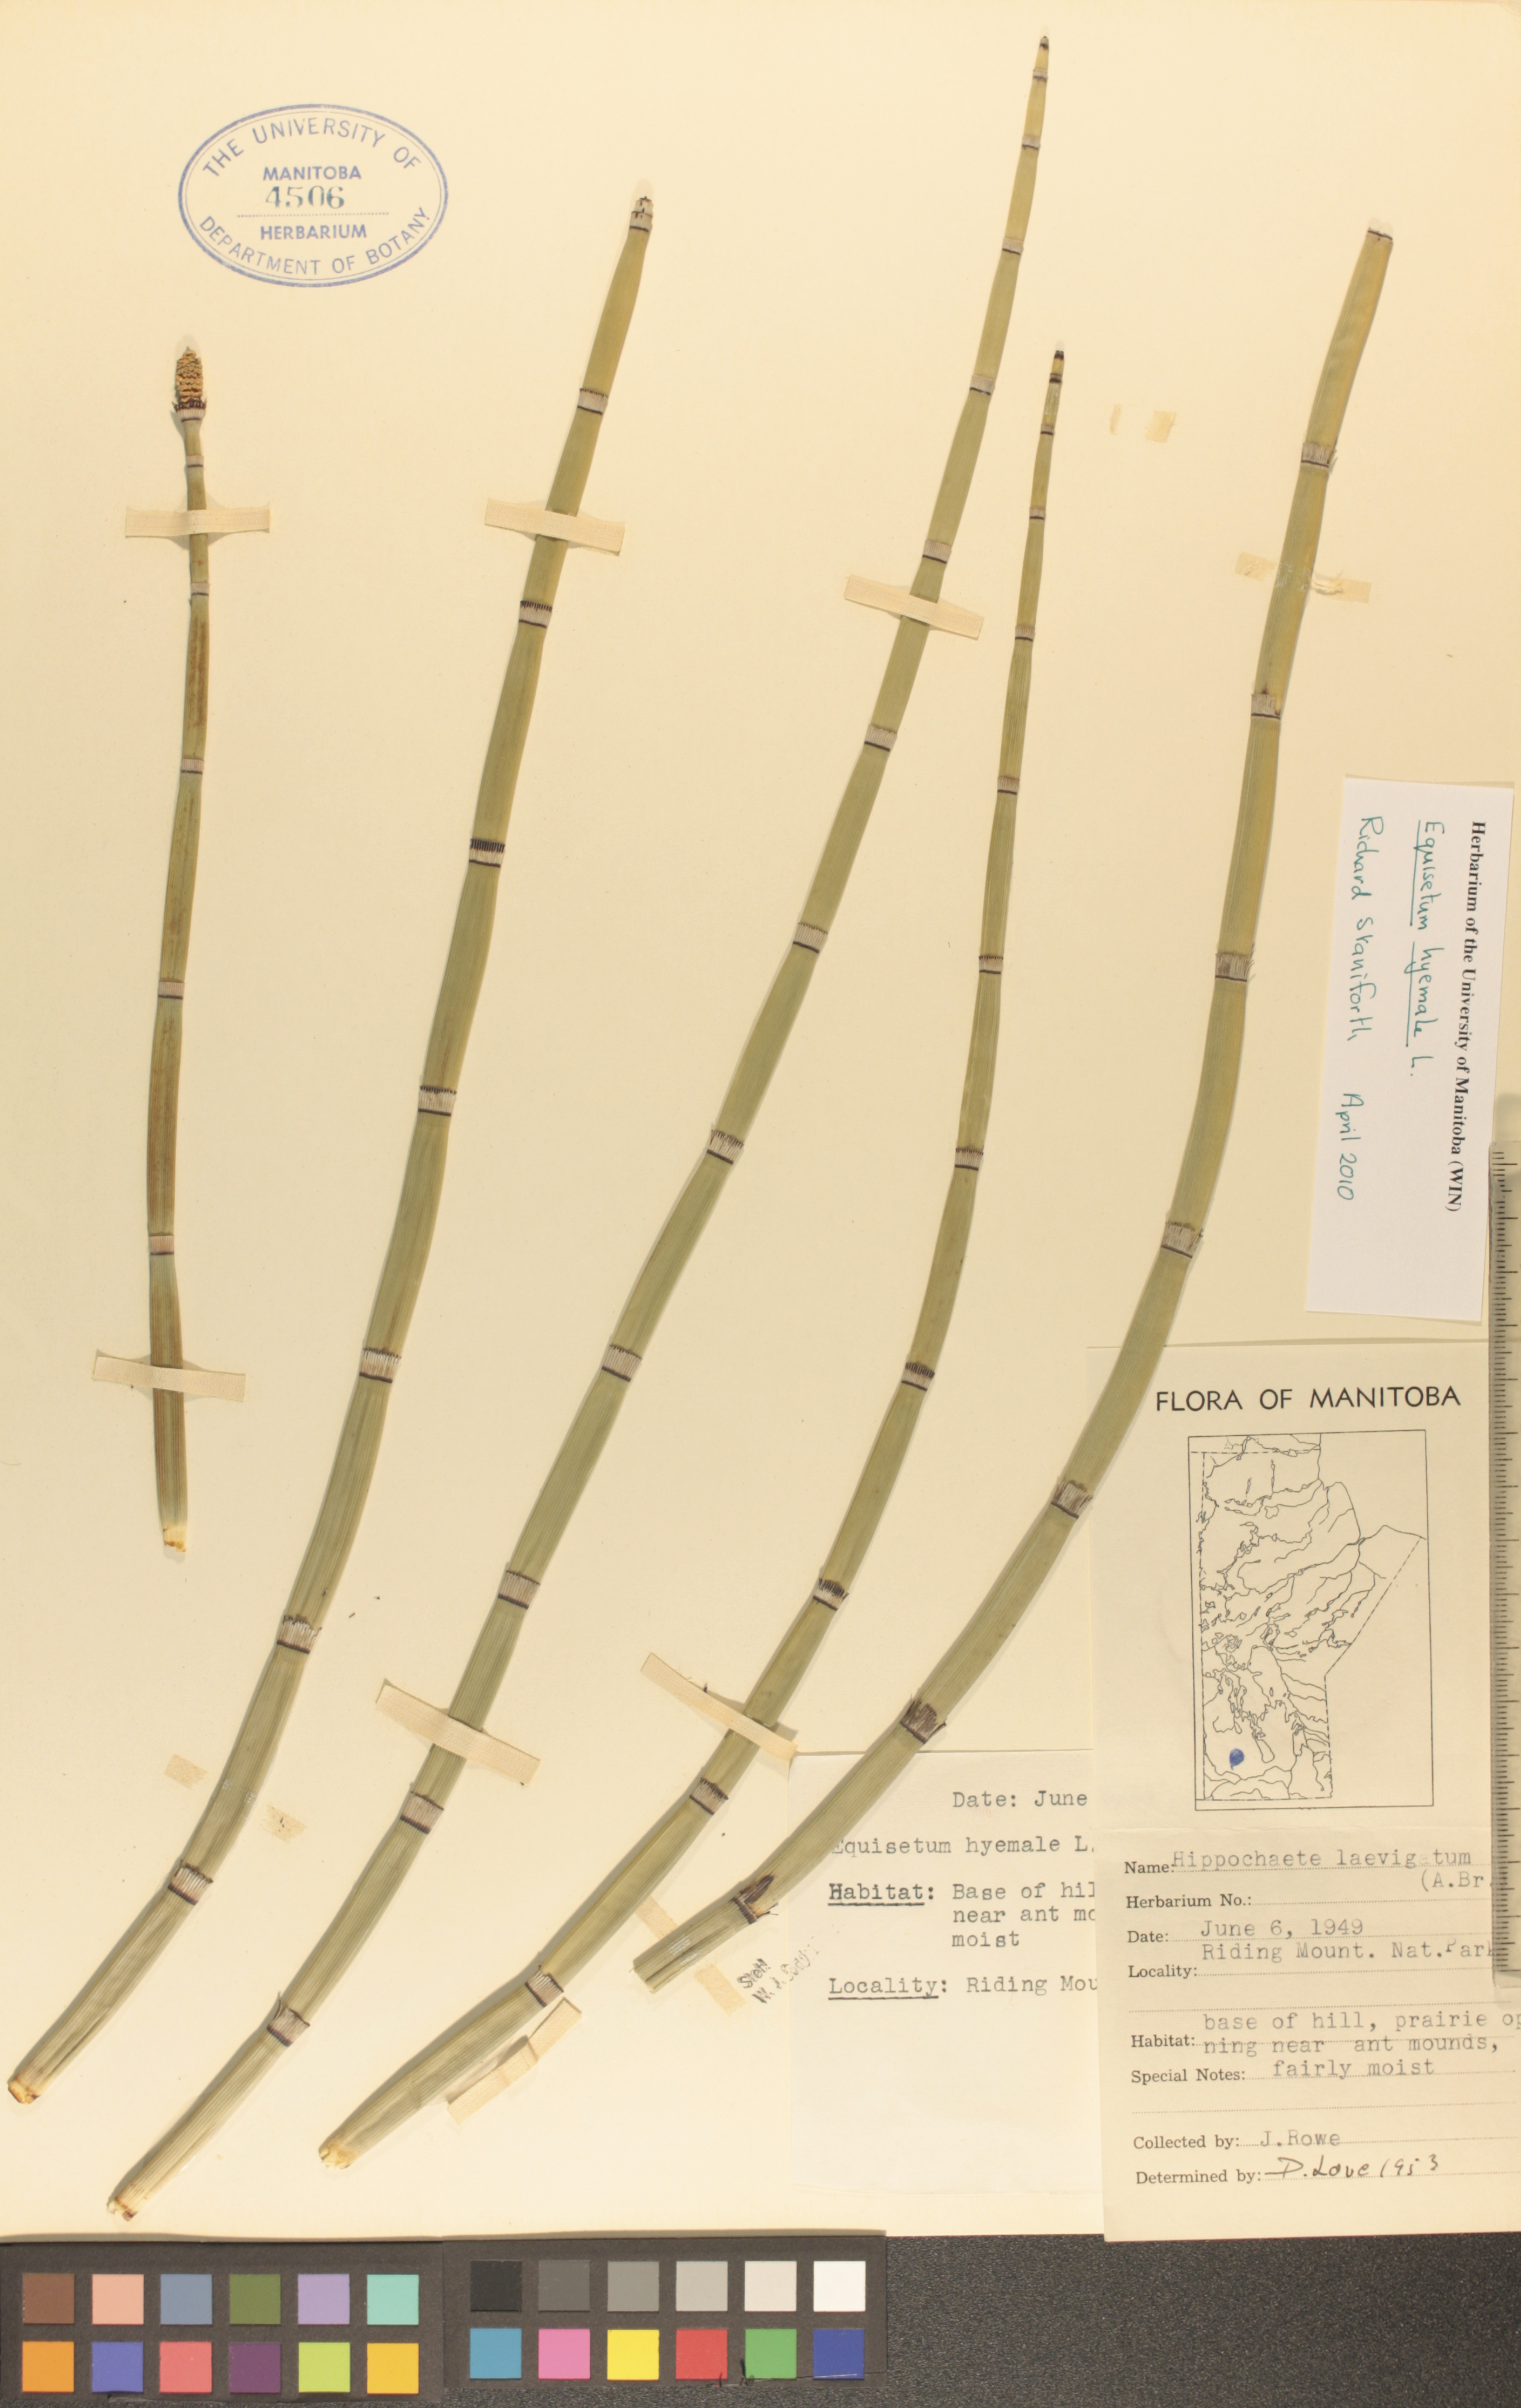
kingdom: Plantae
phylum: Tracheophyta
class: Polypodiopsida
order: Equisetales
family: Equisetaceae
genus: Equisetum
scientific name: Equisetum hyemale
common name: Rough horsetail
